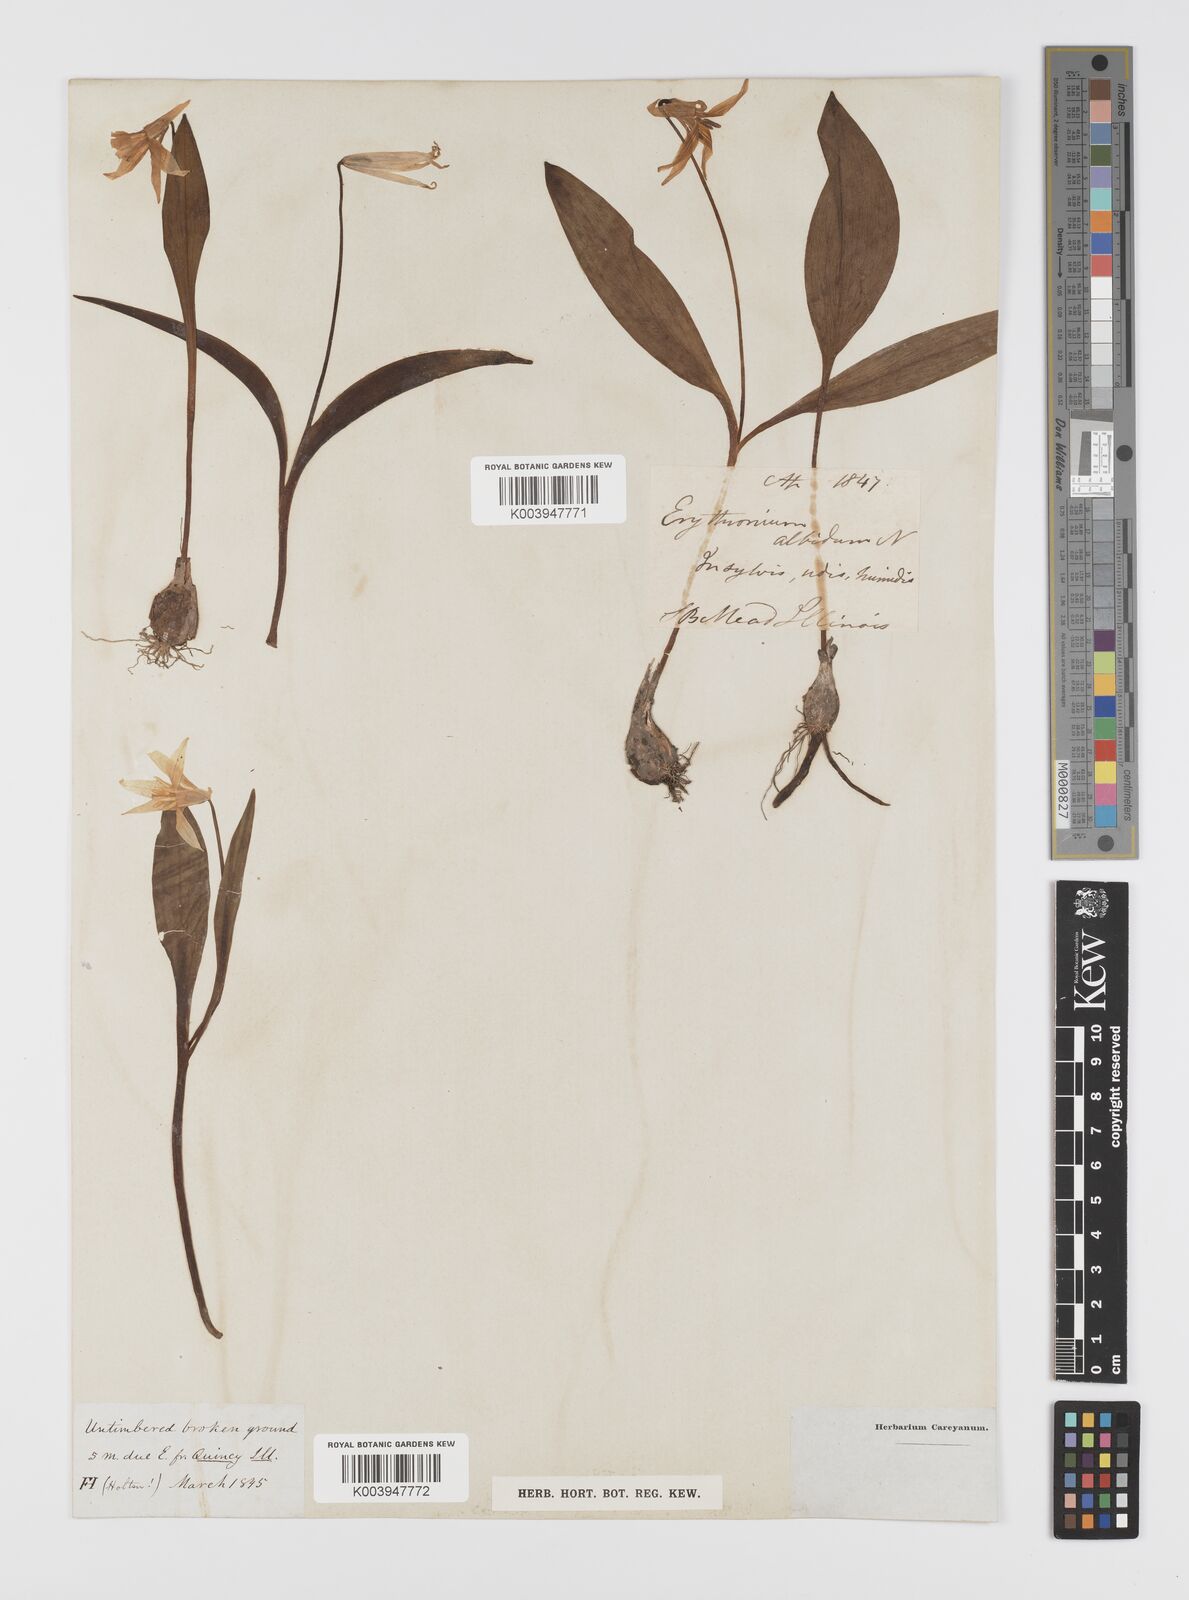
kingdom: Plantae
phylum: Tracheophyta
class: Liliopsida
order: Liliales
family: Liliaceae
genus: Erythronium
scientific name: Erythronium albidum
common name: White trout-lily
